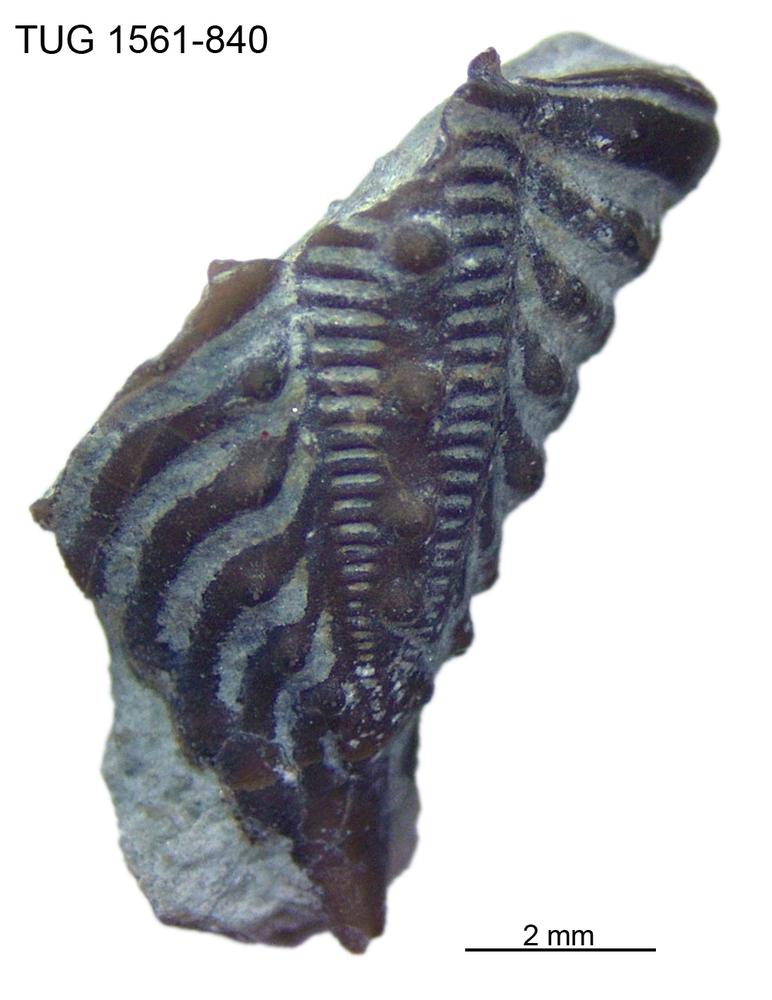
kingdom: Animalia
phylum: Arthropoda
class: Trilobita
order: Phacopida
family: Encrinuridae
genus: Encrinurus
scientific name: Encrinurus punctatus
